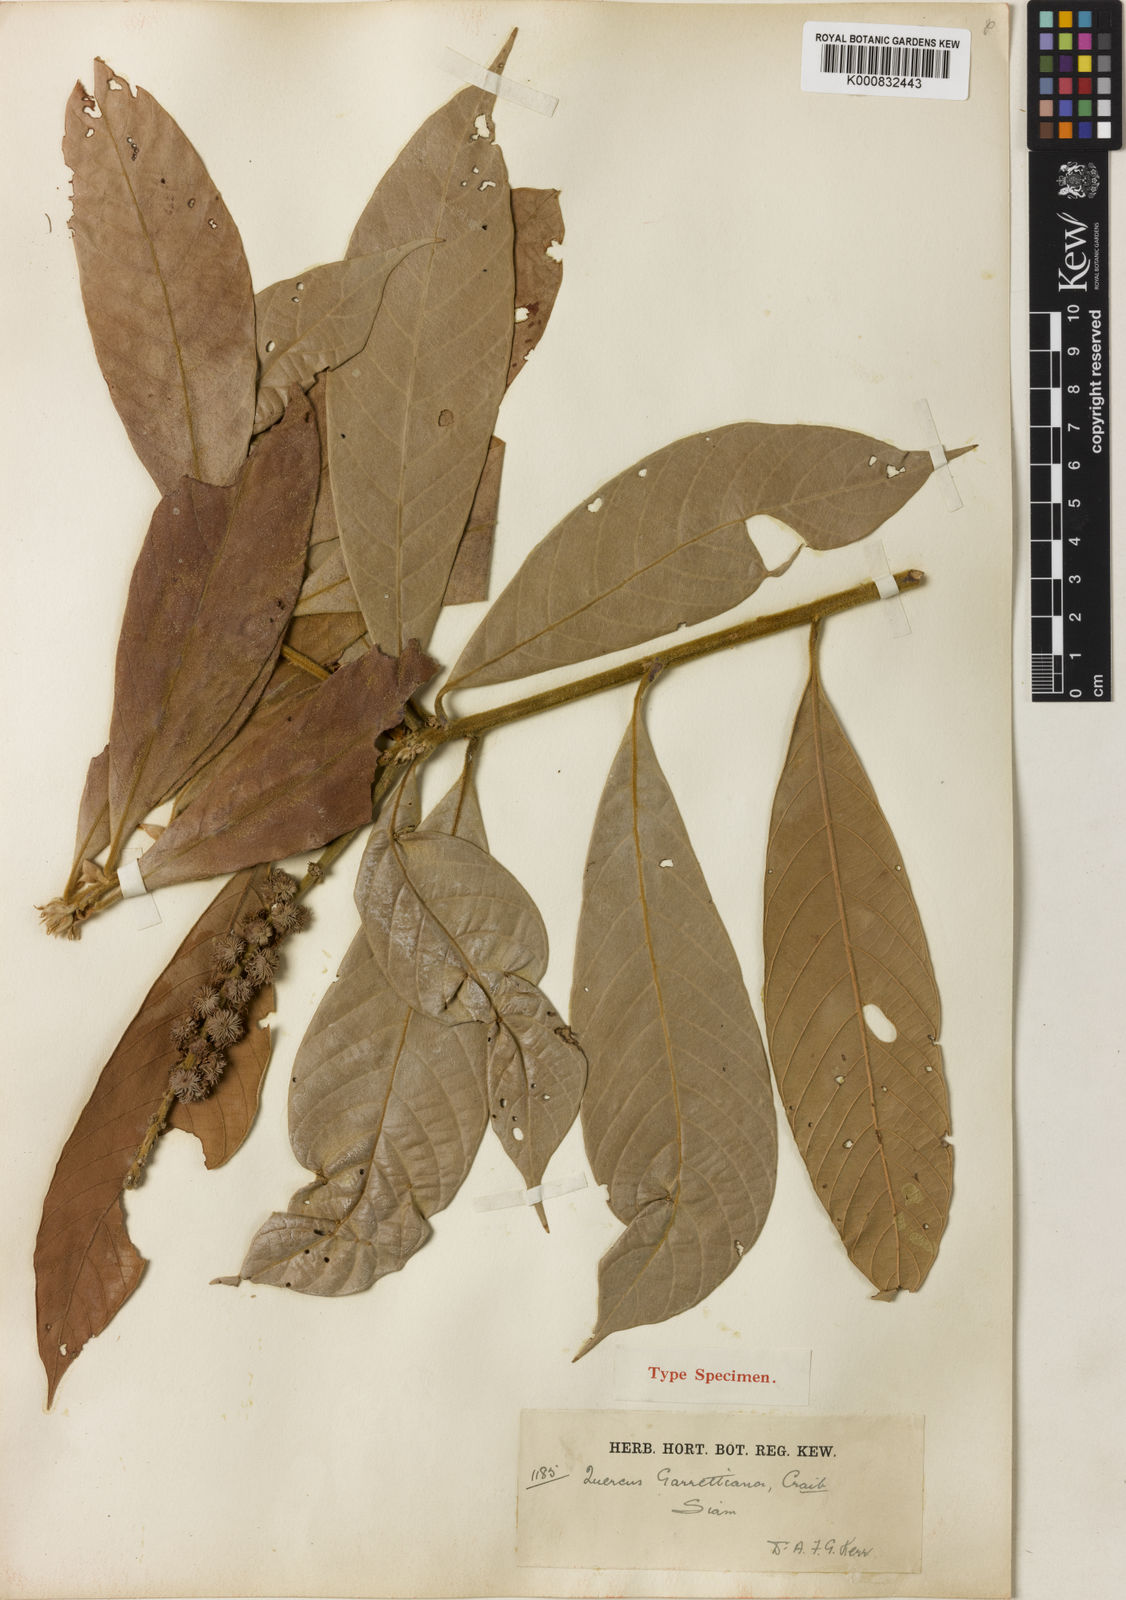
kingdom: Plantae
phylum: Tracheophyta
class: Magnoliopsida
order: Fagales
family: Fagaceae
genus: Lithocarpus
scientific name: Lithocarpus garrettianus
